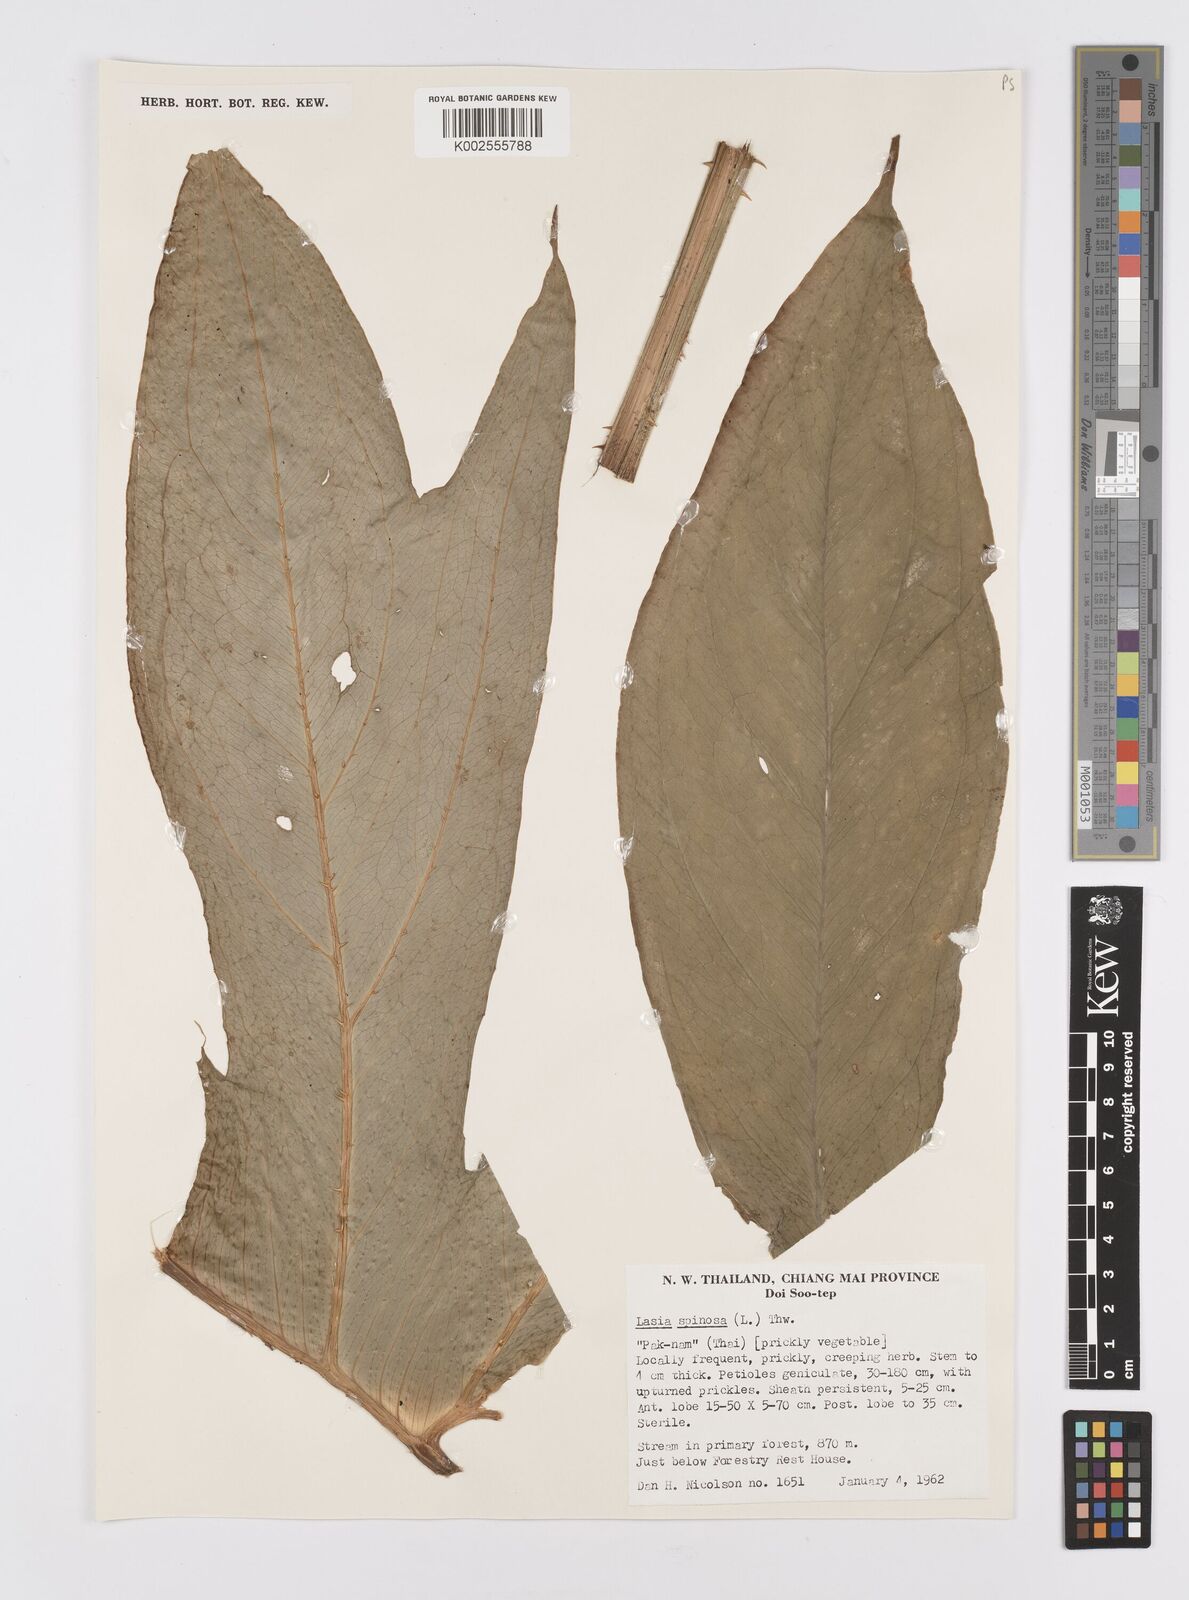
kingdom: Plantae
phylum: Tracheophyta
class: Liliopsida
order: Alismatales
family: Araceae
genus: Lasia
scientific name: Lasia spinosa
